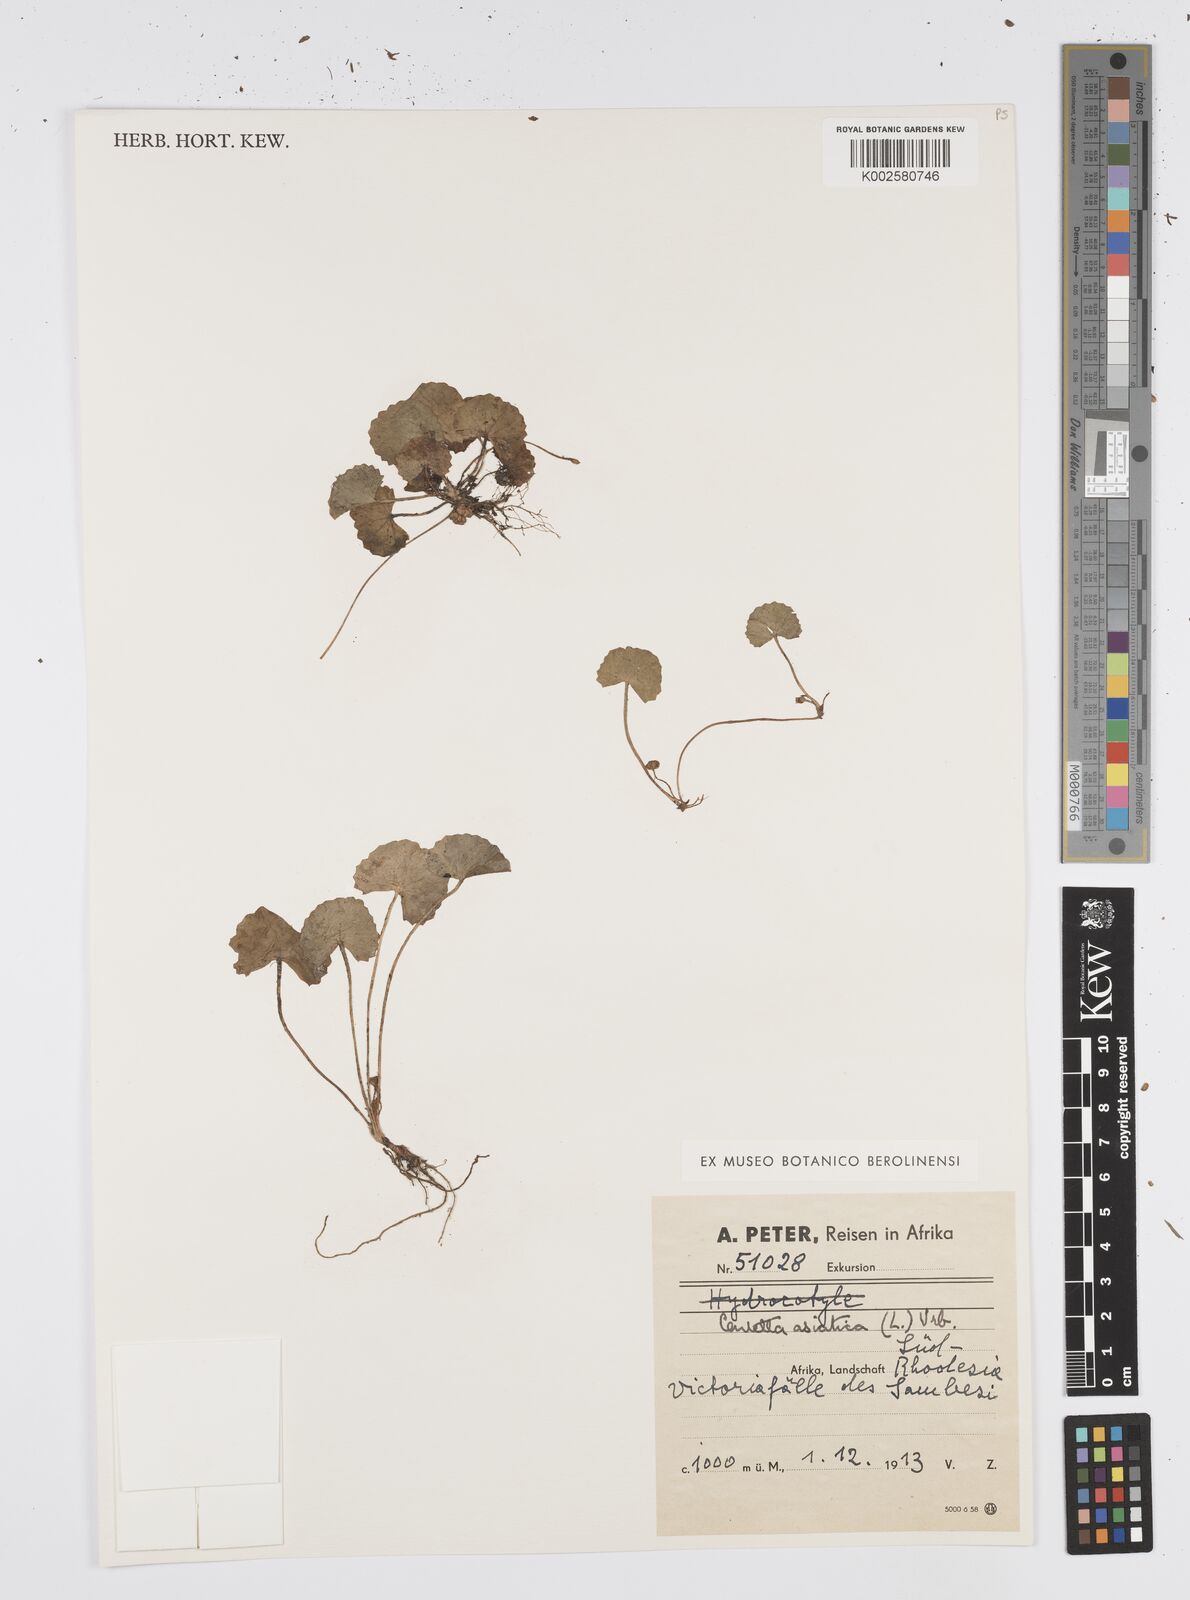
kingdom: Plantae
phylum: Tracheophyta
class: Magnoliopsida
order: Apiales
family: Apiaceae
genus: Centella
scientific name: Centella asiatica
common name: Spadeleaf
